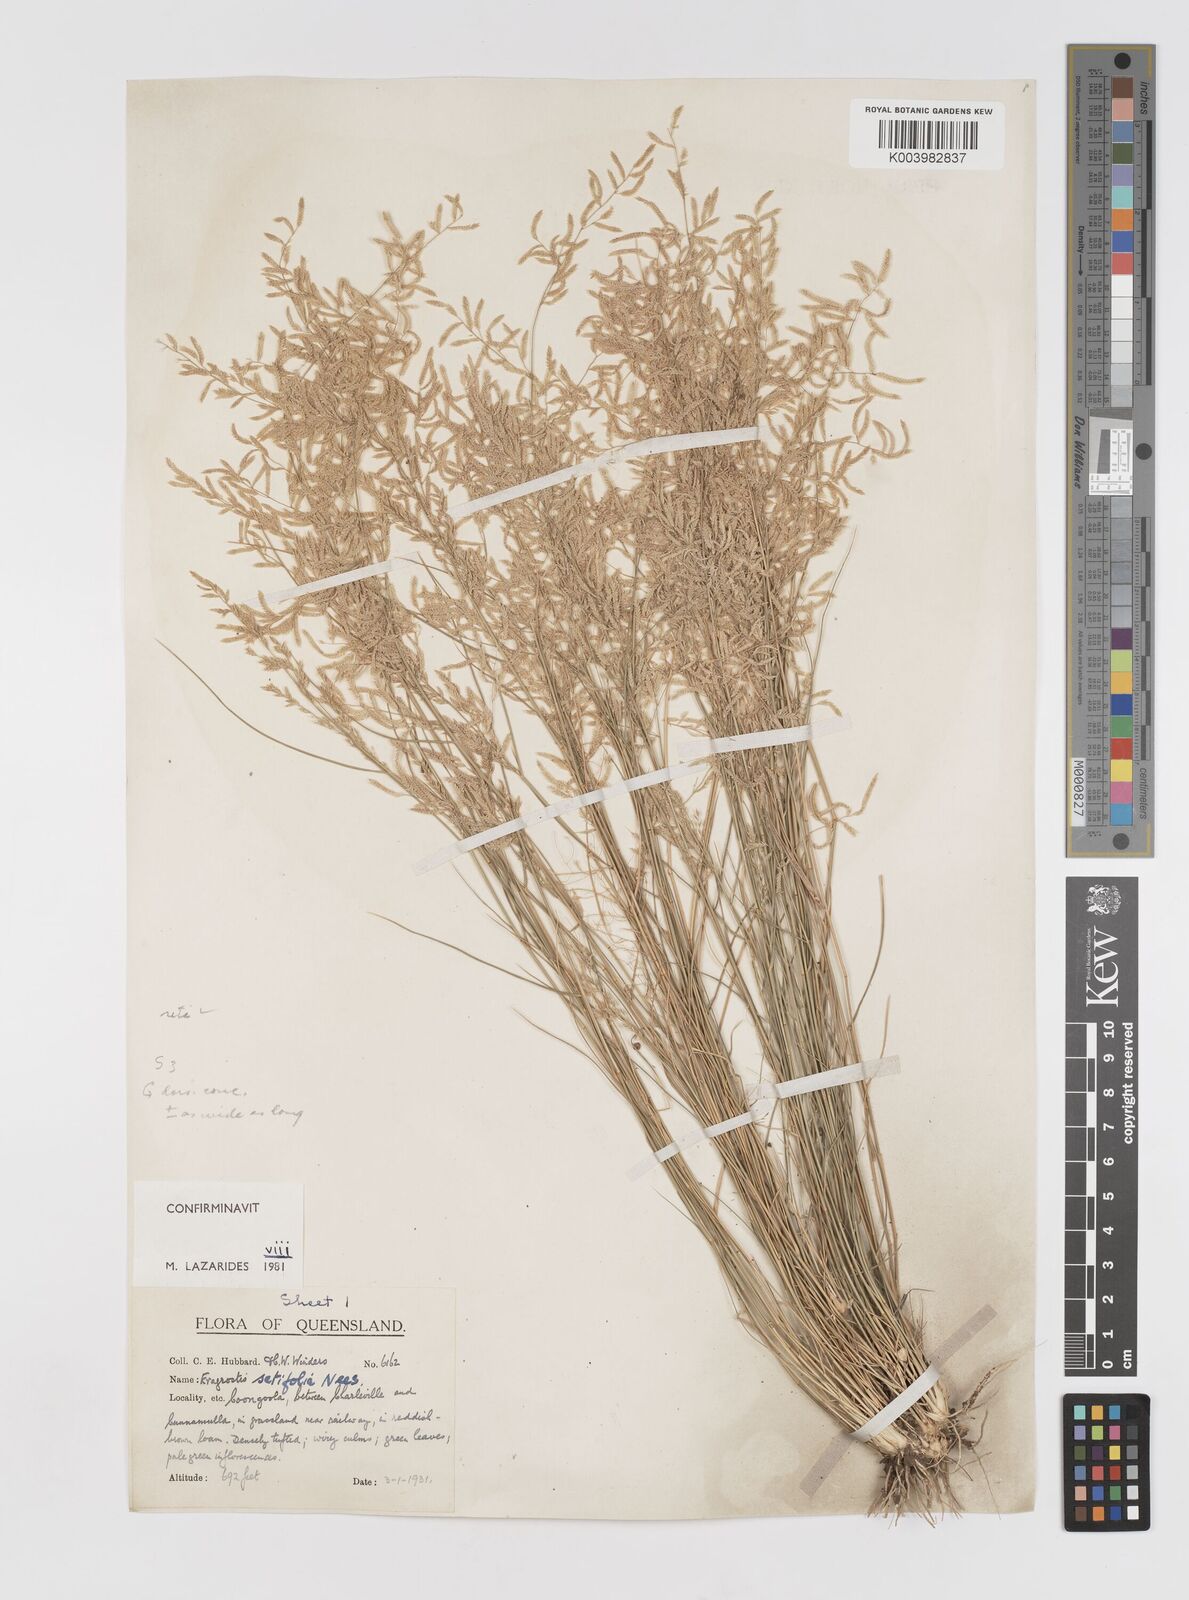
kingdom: Plantae
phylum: Tracheophyta
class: Liliopsida
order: Poales
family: Poaceae
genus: Eragrostis
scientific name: Eragrostis setifolia
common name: Bristleleaf lovegrass
